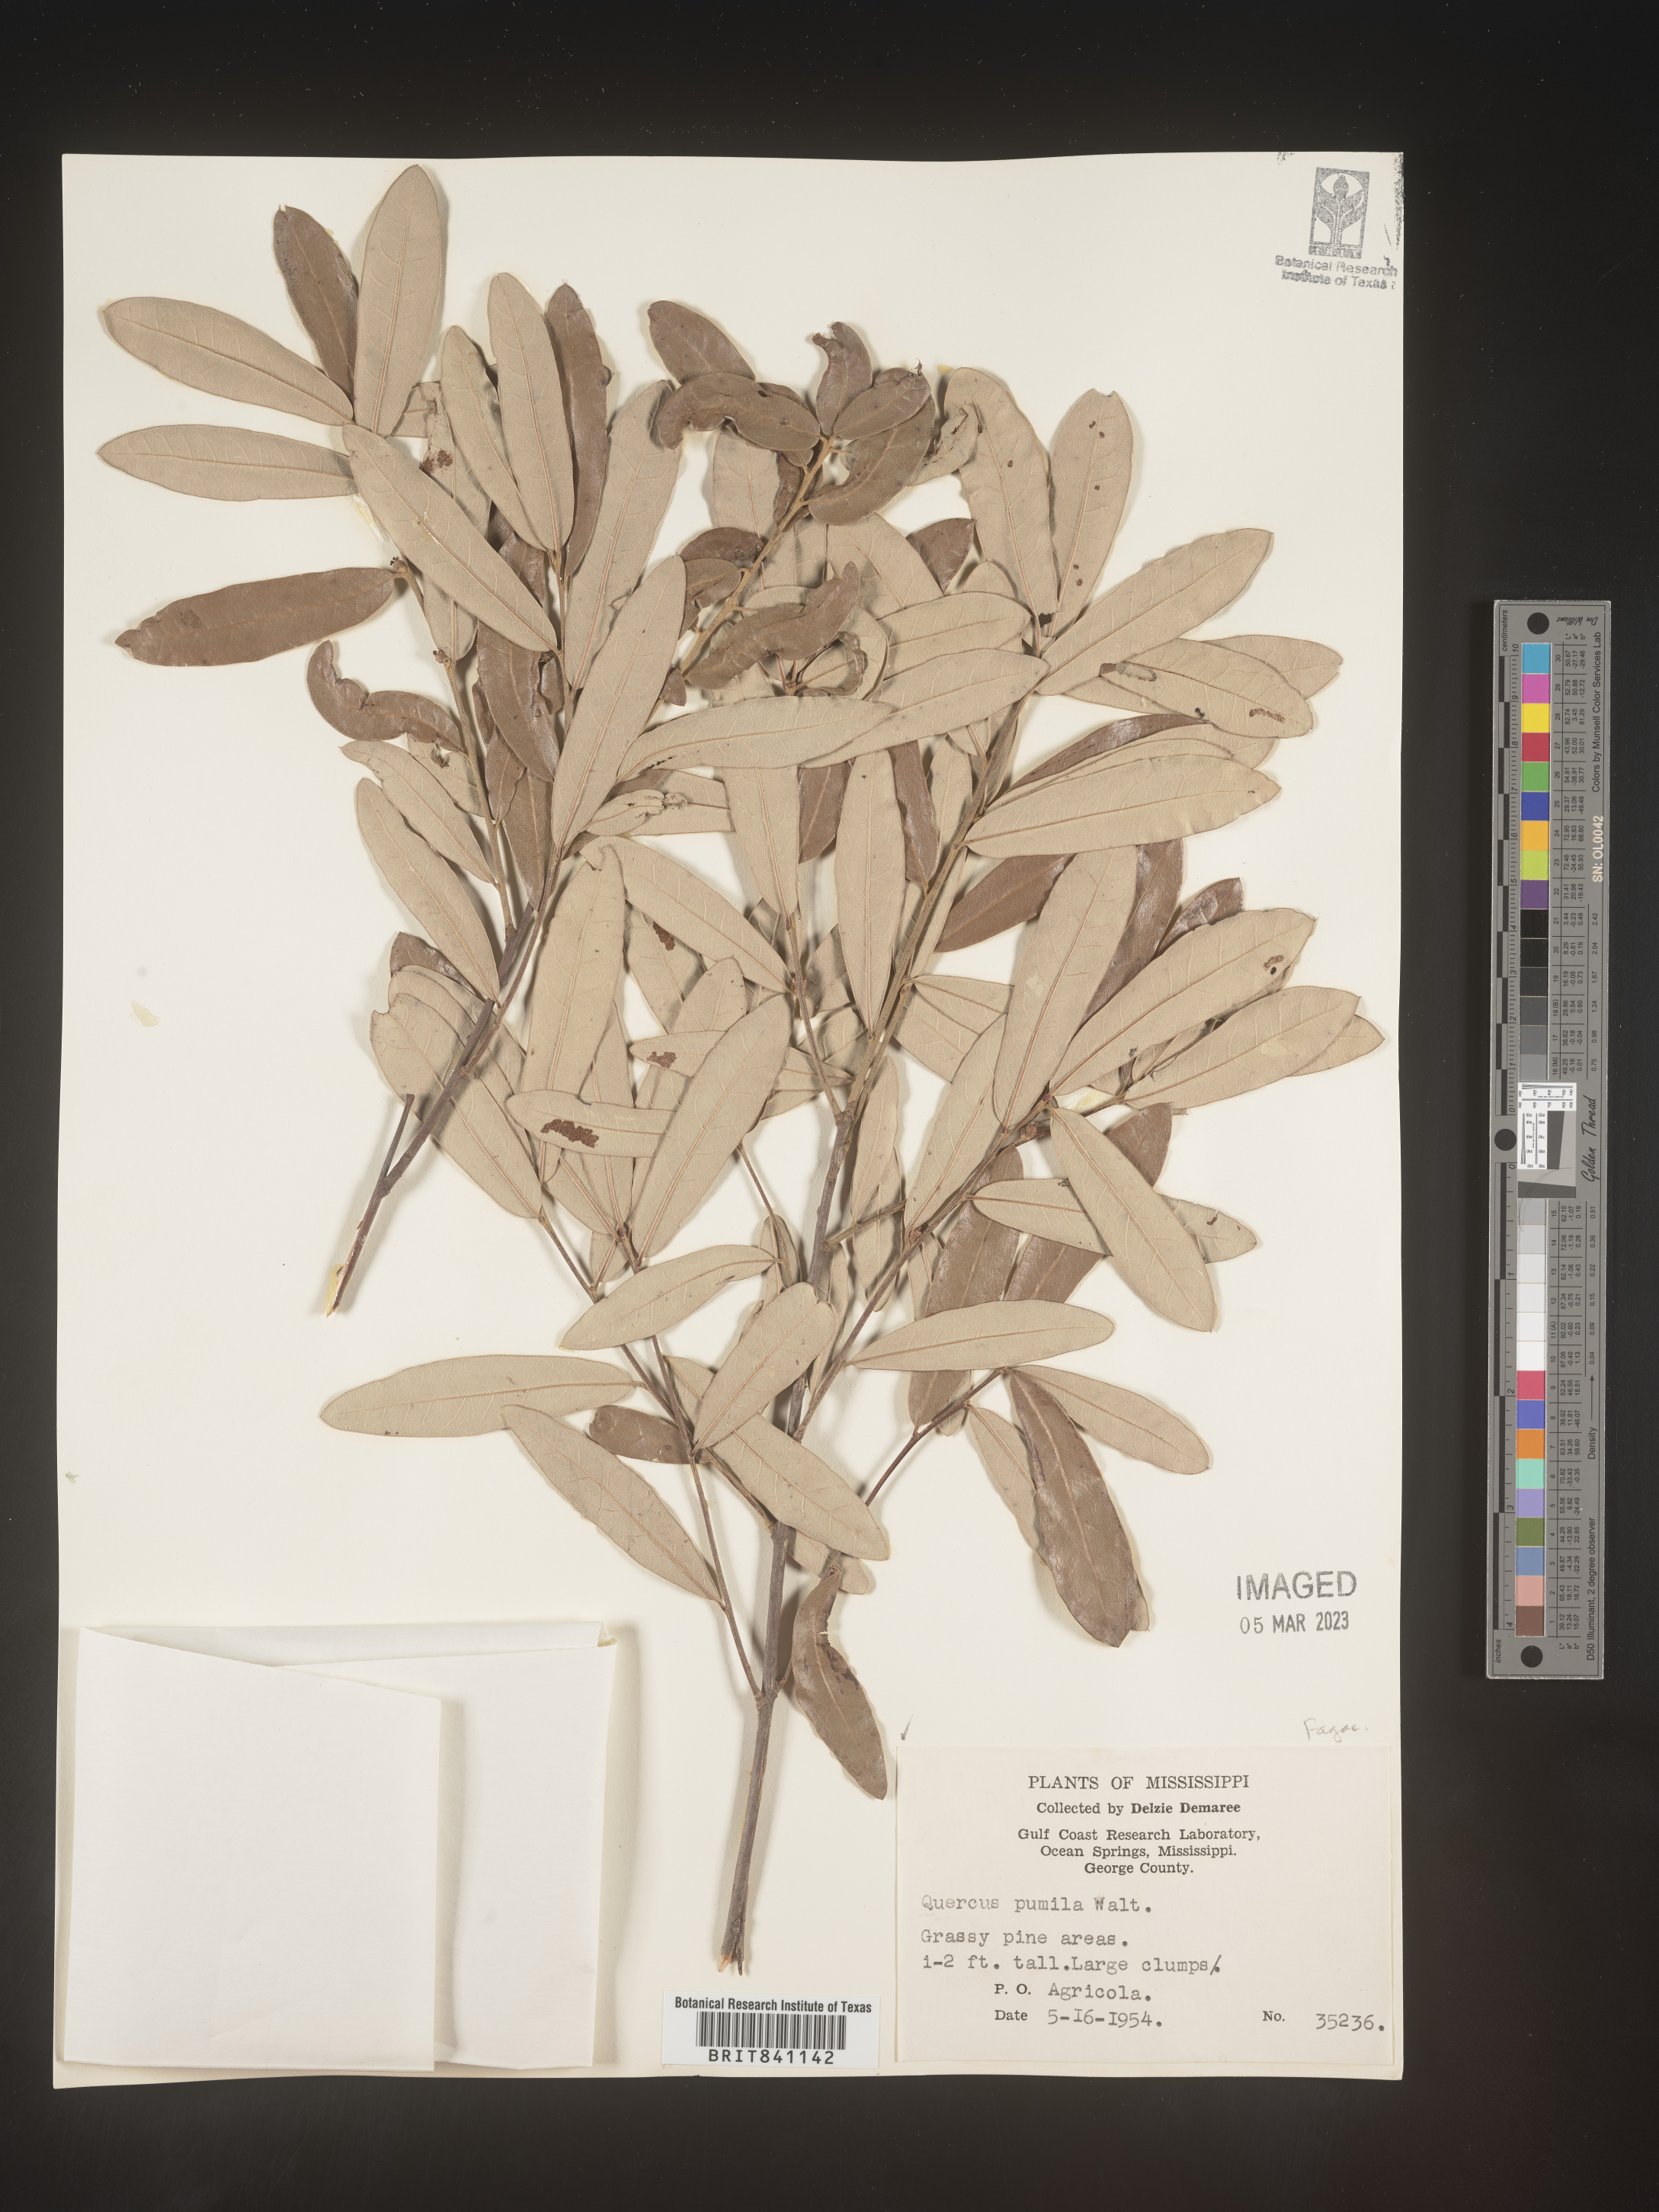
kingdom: Plantae
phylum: Tracheophyta
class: Magnoliopsida
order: Fagales
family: Fagaceae
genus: Quercus
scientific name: Quercus pumila
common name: Runner oak
